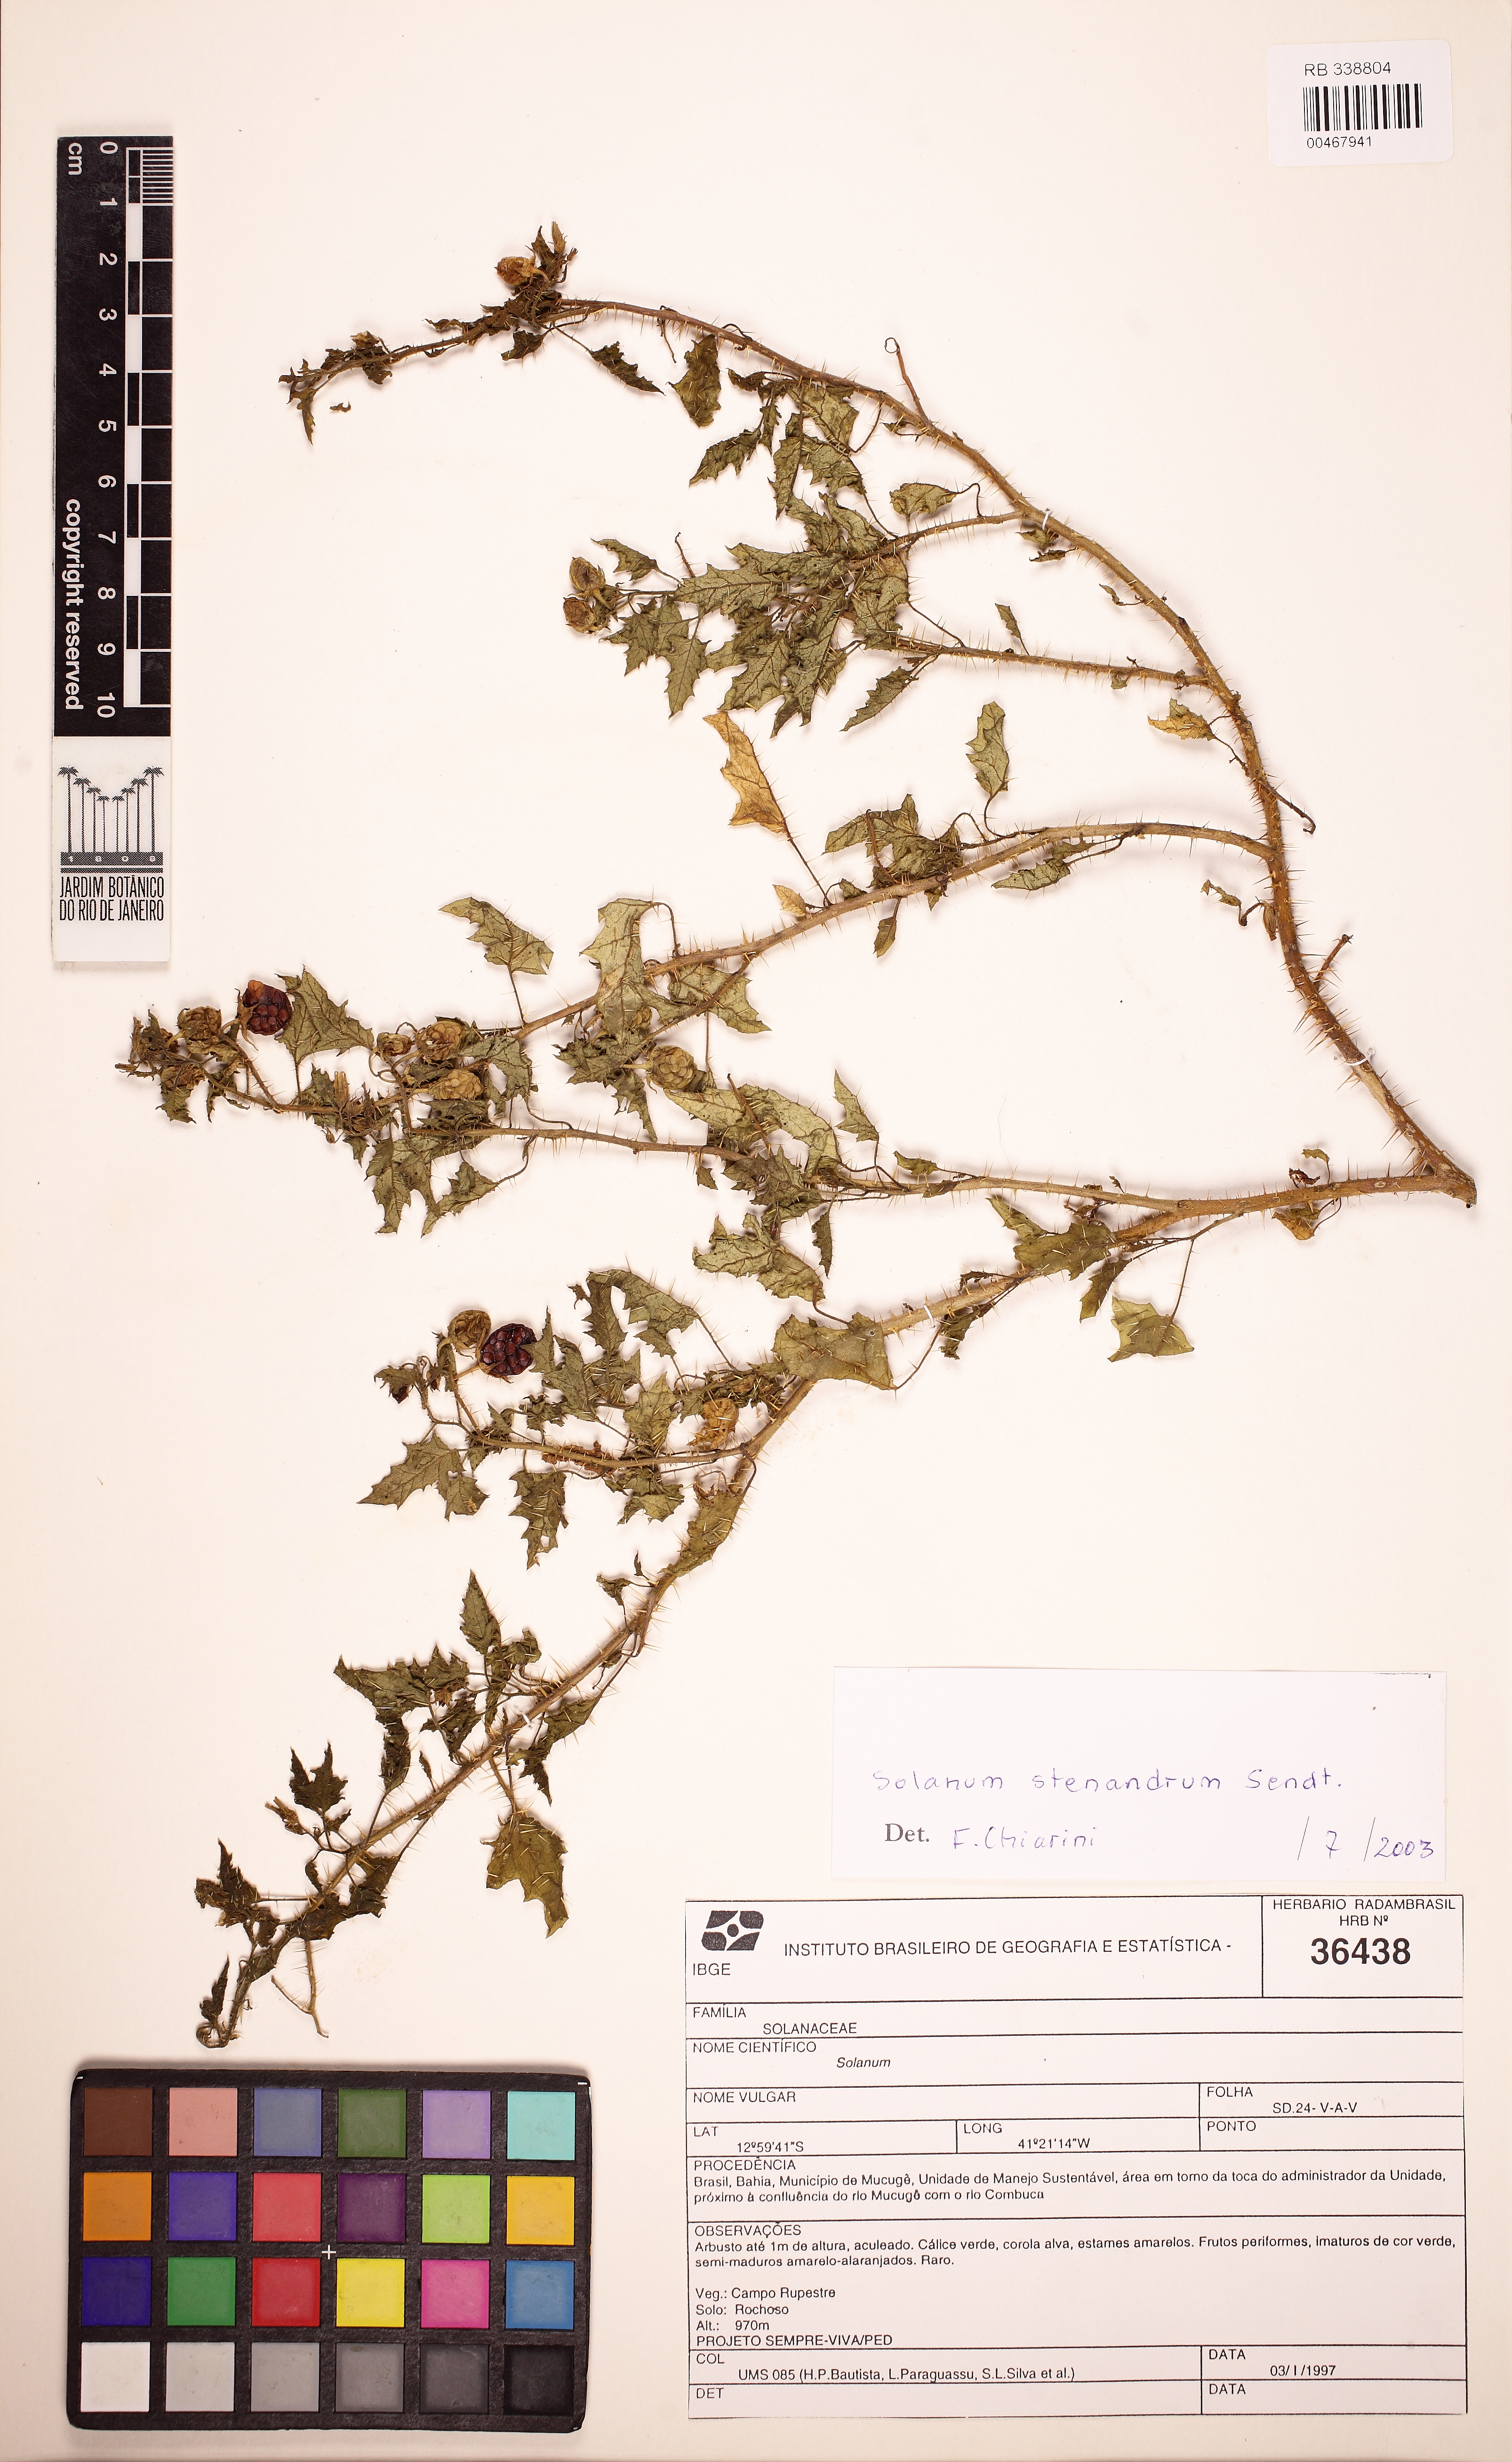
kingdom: Plantae
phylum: Tracheophyta
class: Magnoliopsida
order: Solanales
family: Solanaceae
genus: Solanum
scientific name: Solanum stenandrum
